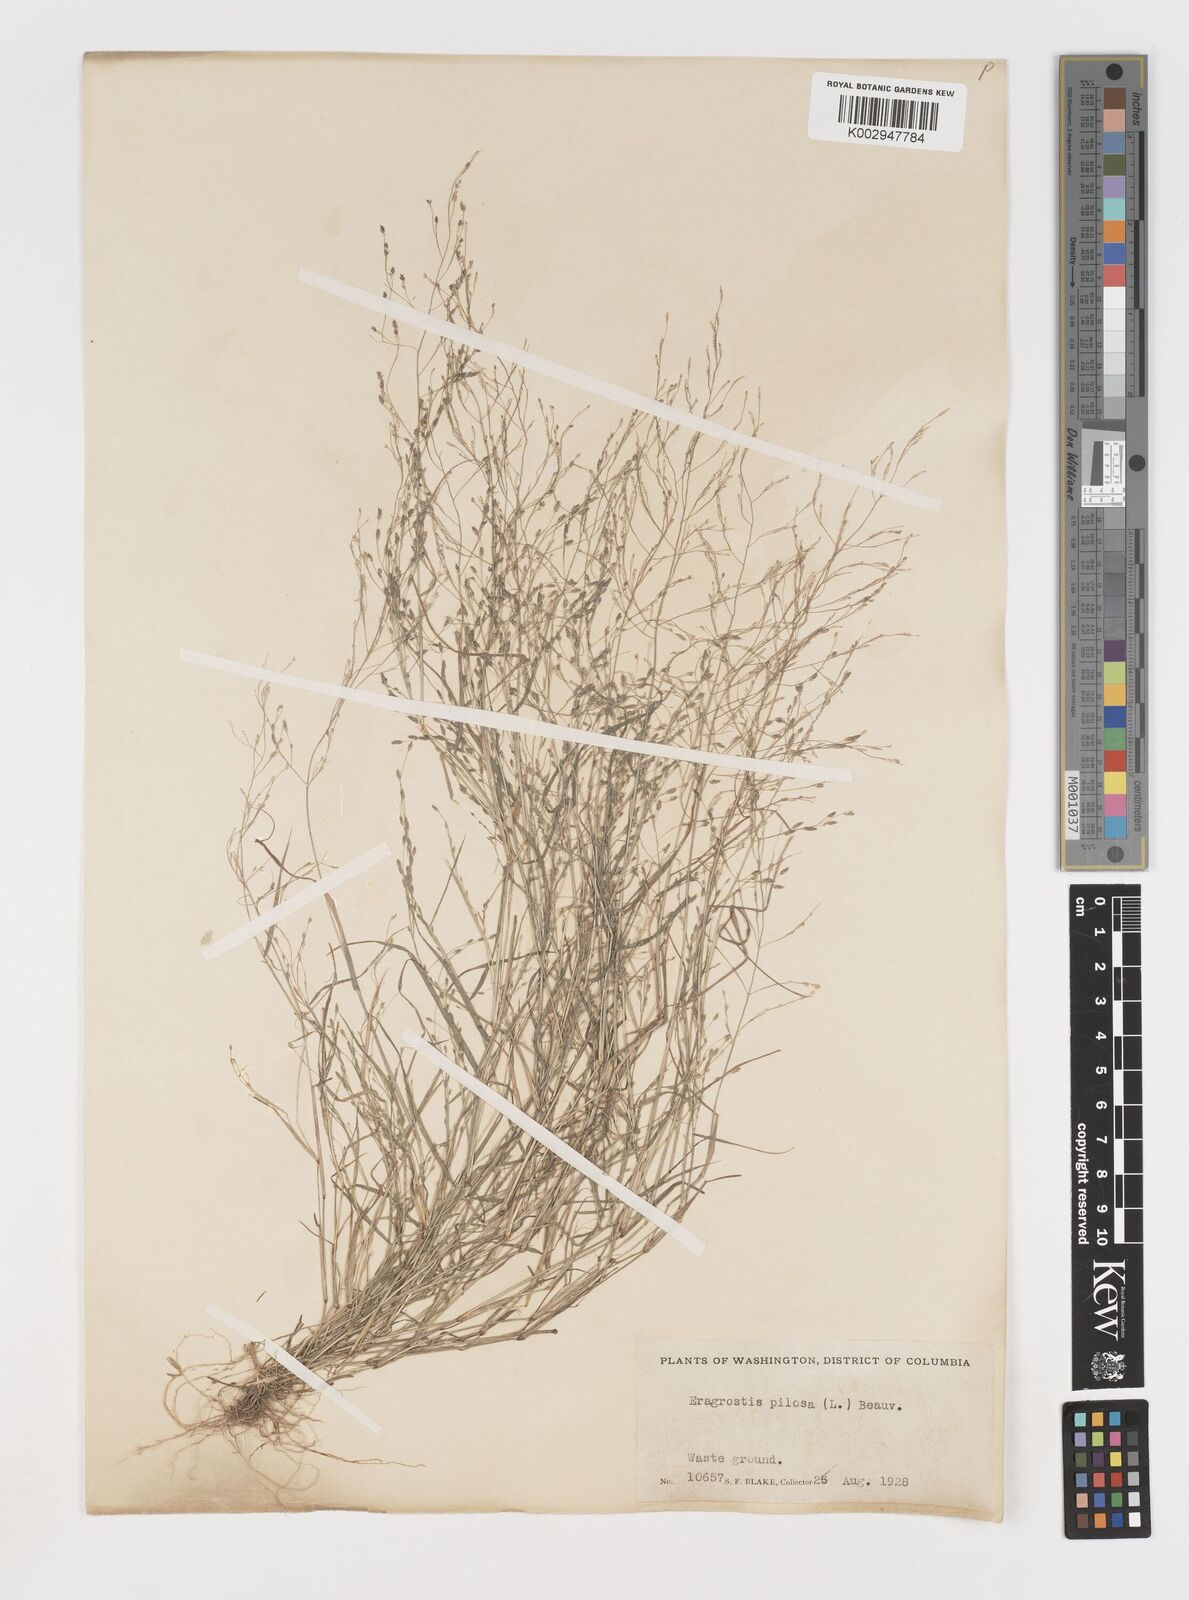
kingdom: Plantae
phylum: Tracheophyta
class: Liliopsida
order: Poales
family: Poaceae
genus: Eragrostis
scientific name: Eragrostis pectinacea
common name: Tufted lovegrass
